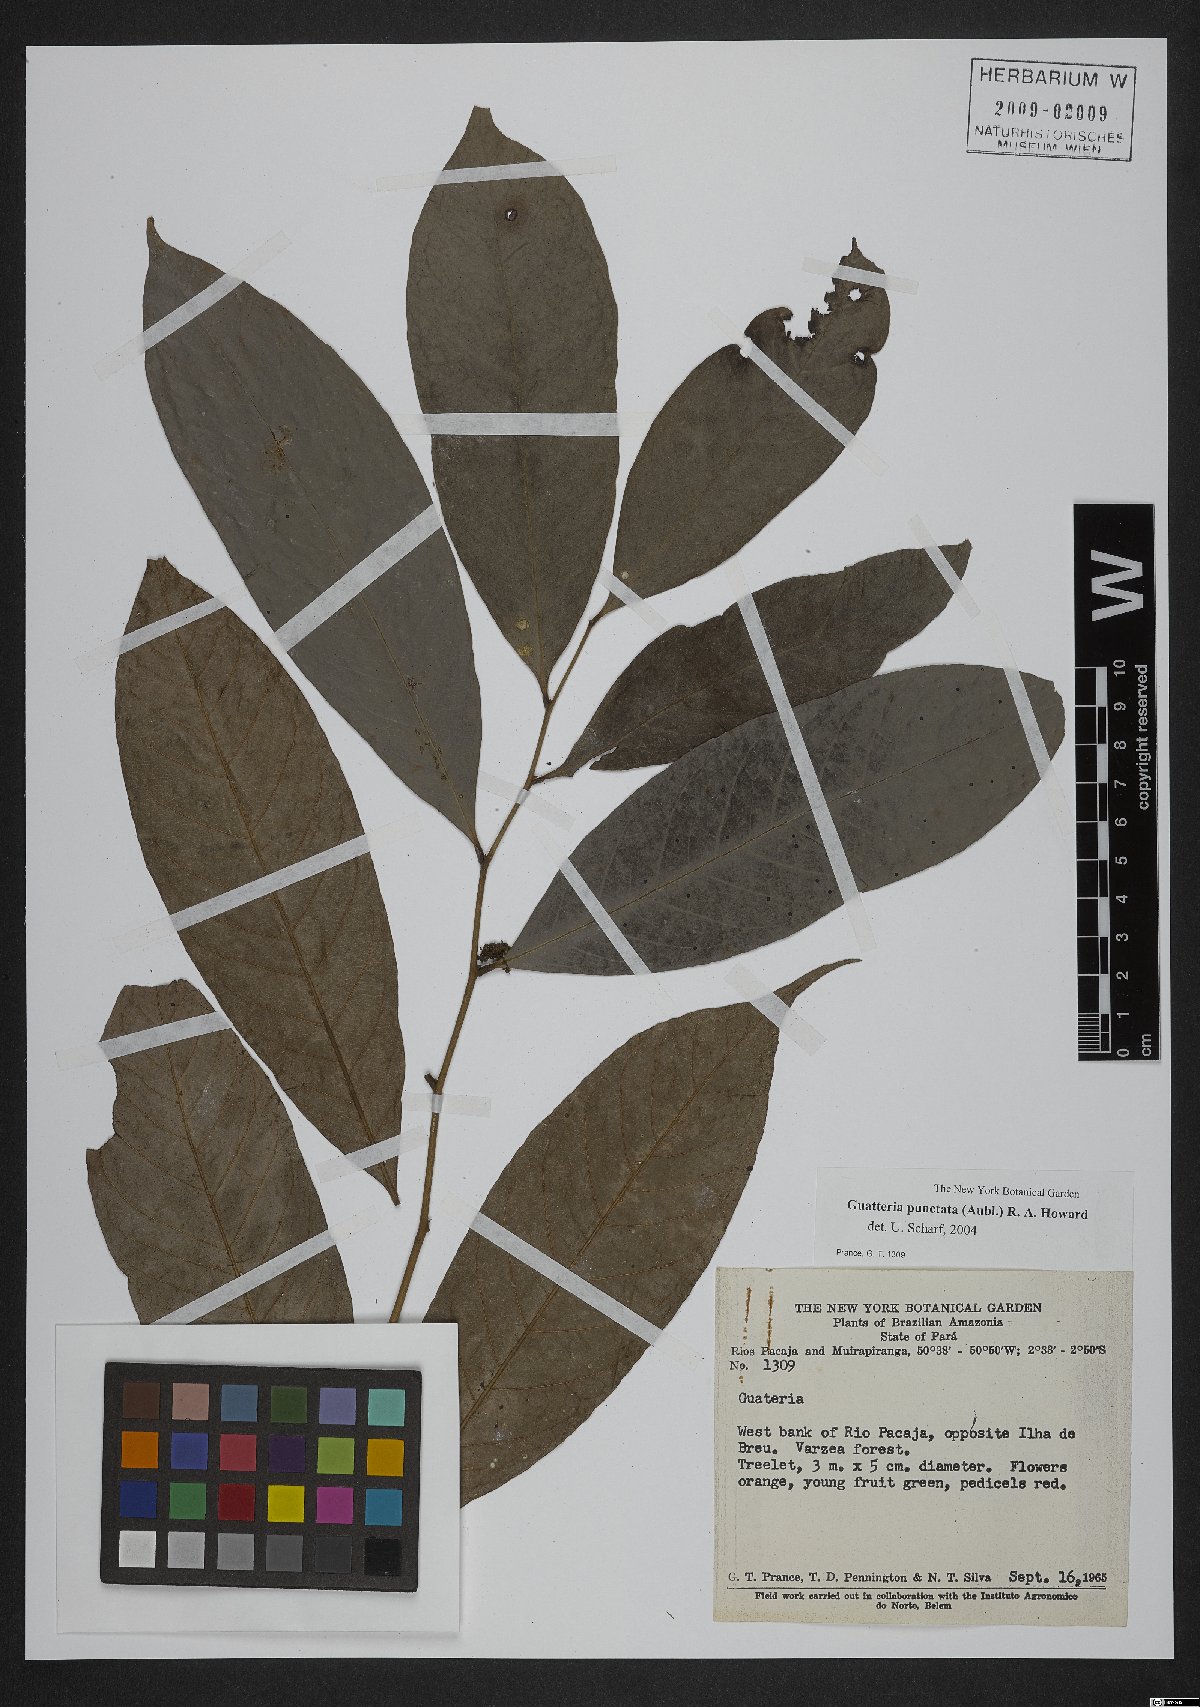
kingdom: Plantae
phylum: Tracheophyta
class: Magnoliopsida
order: Magnoliales
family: Annonaceae
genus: Guatteria
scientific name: Guatteria punctata
